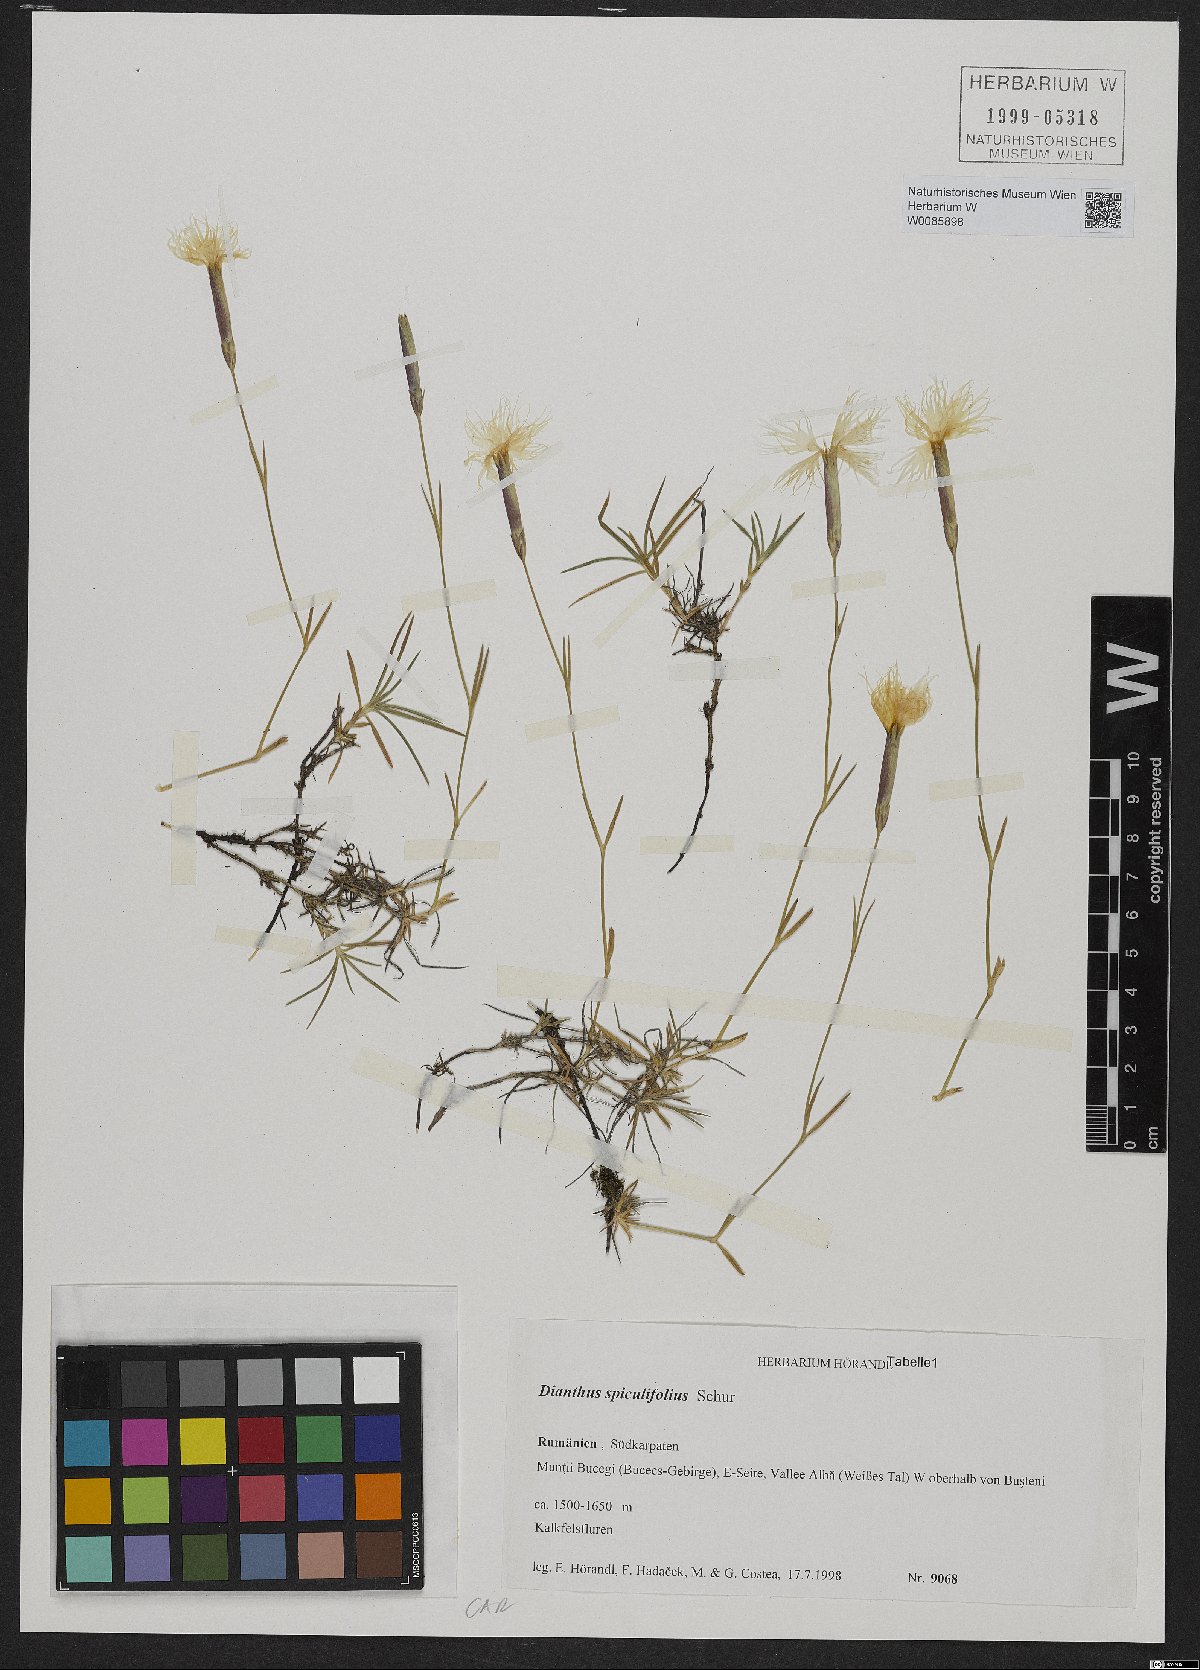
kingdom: Plantae
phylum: Tracheophyta
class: Magnoliopsida
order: Caryophyllales
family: Caryophyllaceae
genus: Dianthus
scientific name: Dianthus spiculifolius
